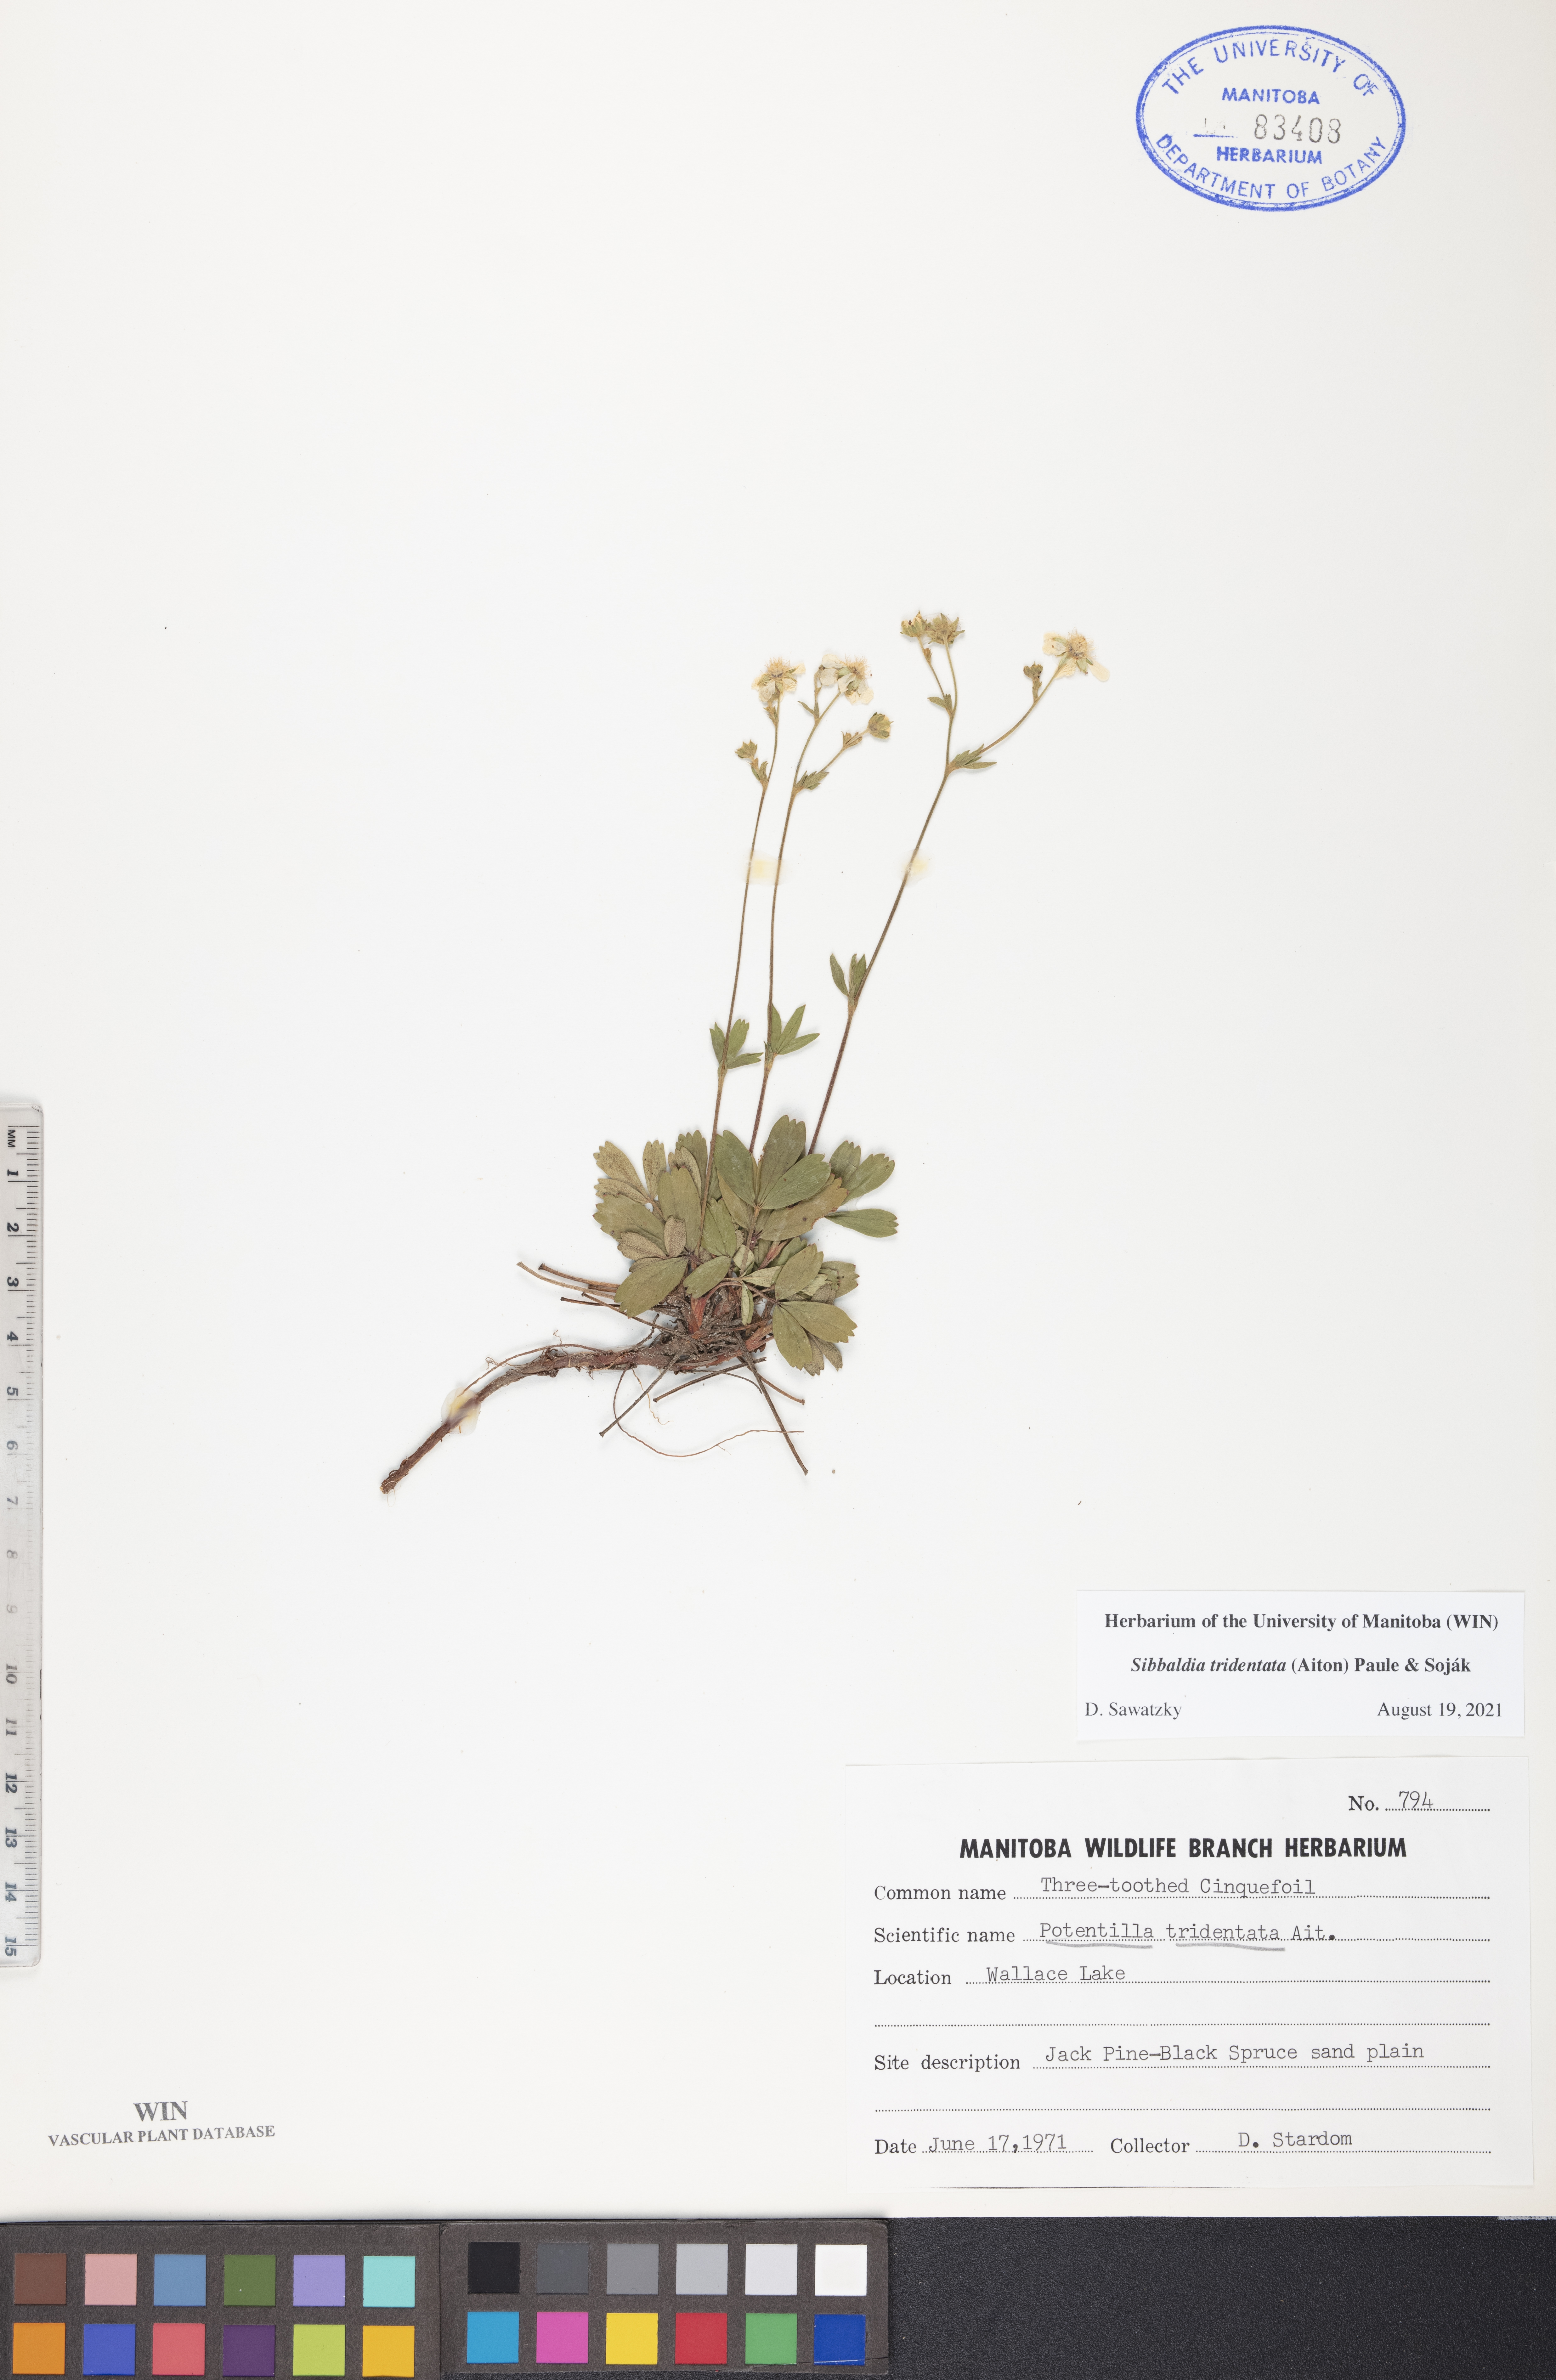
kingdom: Plantae
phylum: Tracheophyta
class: Magnoliopsida
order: Rosales
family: Rosaceae
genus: Sibbaldia
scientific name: Sibbaldia tridentata
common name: Three-toothed cinquefoil
